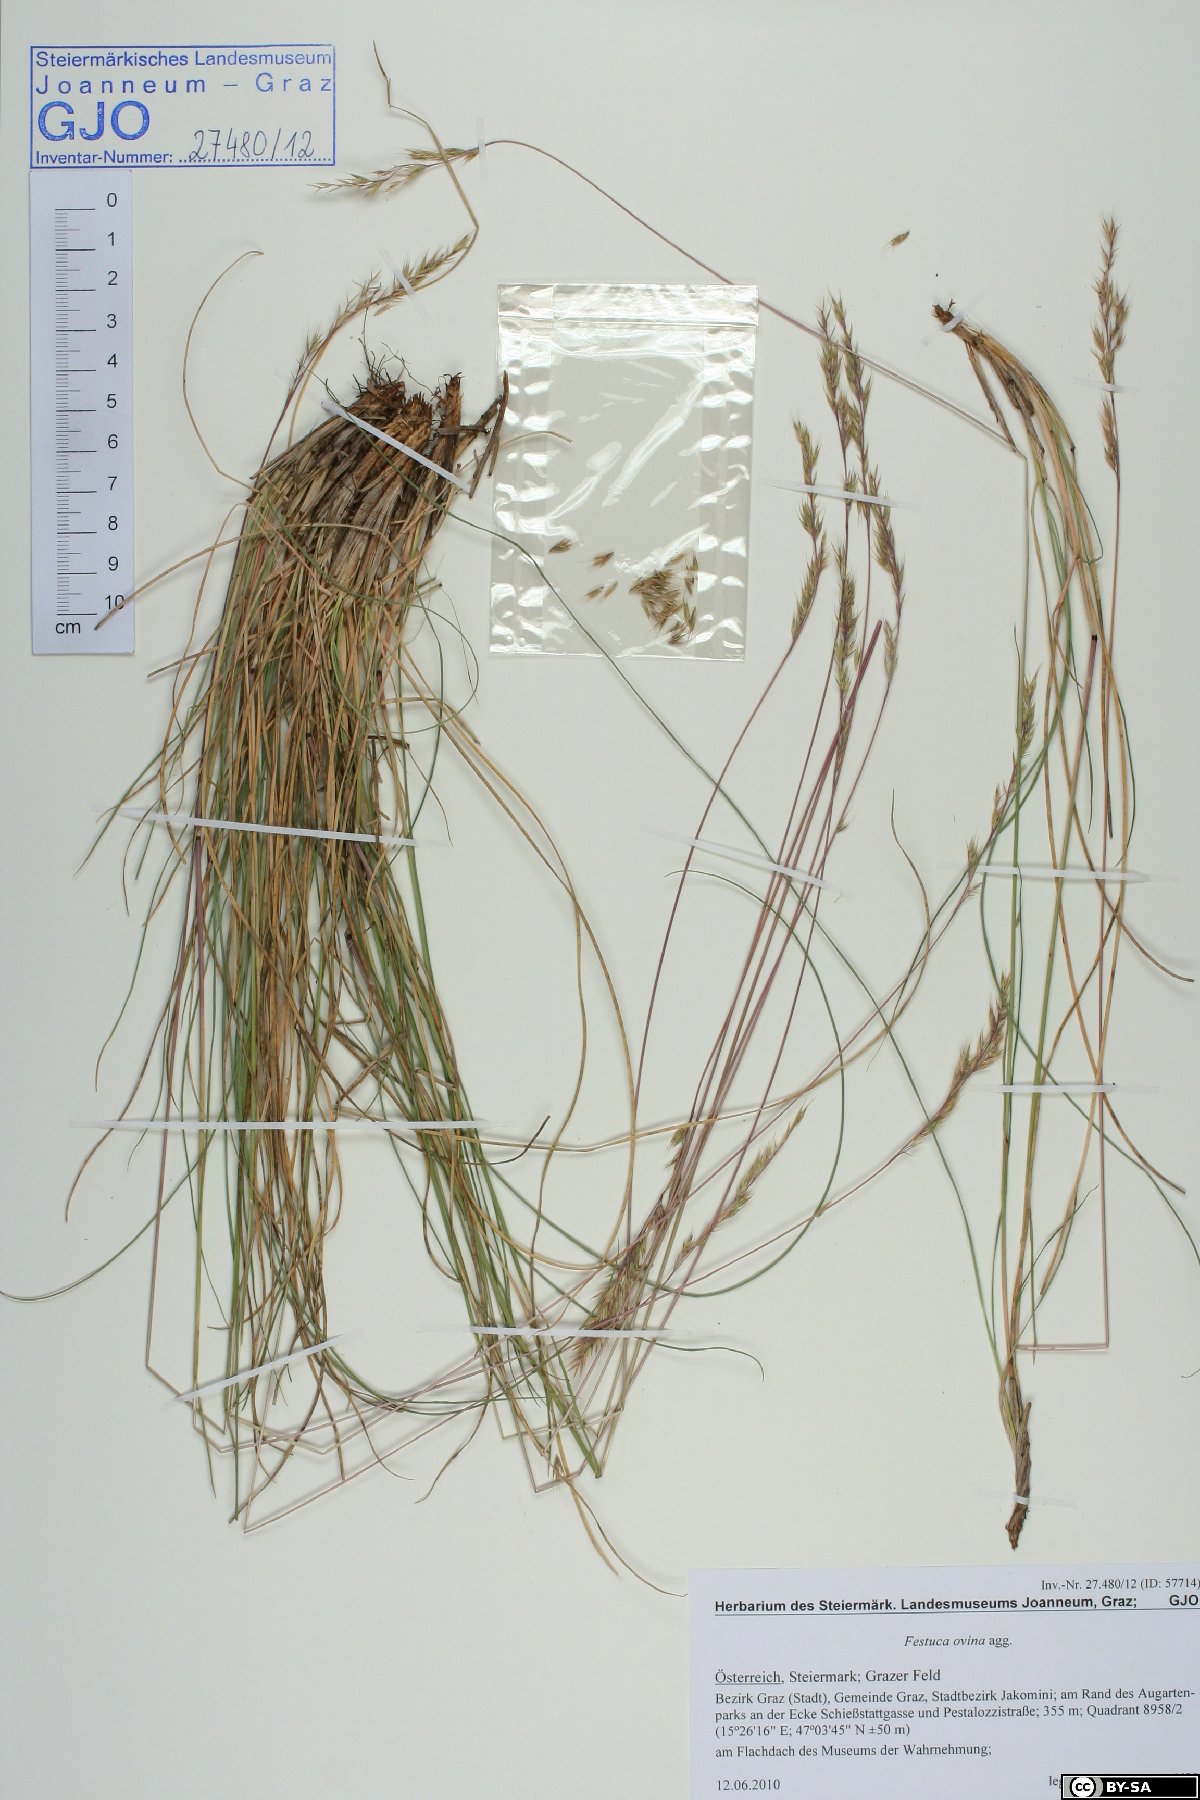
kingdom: Plantae
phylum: Tracheophyta
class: Liliopsida
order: Poales
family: Poaceae
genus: Festuca
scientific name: Festuca trachyphylla
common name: Hard fescue
